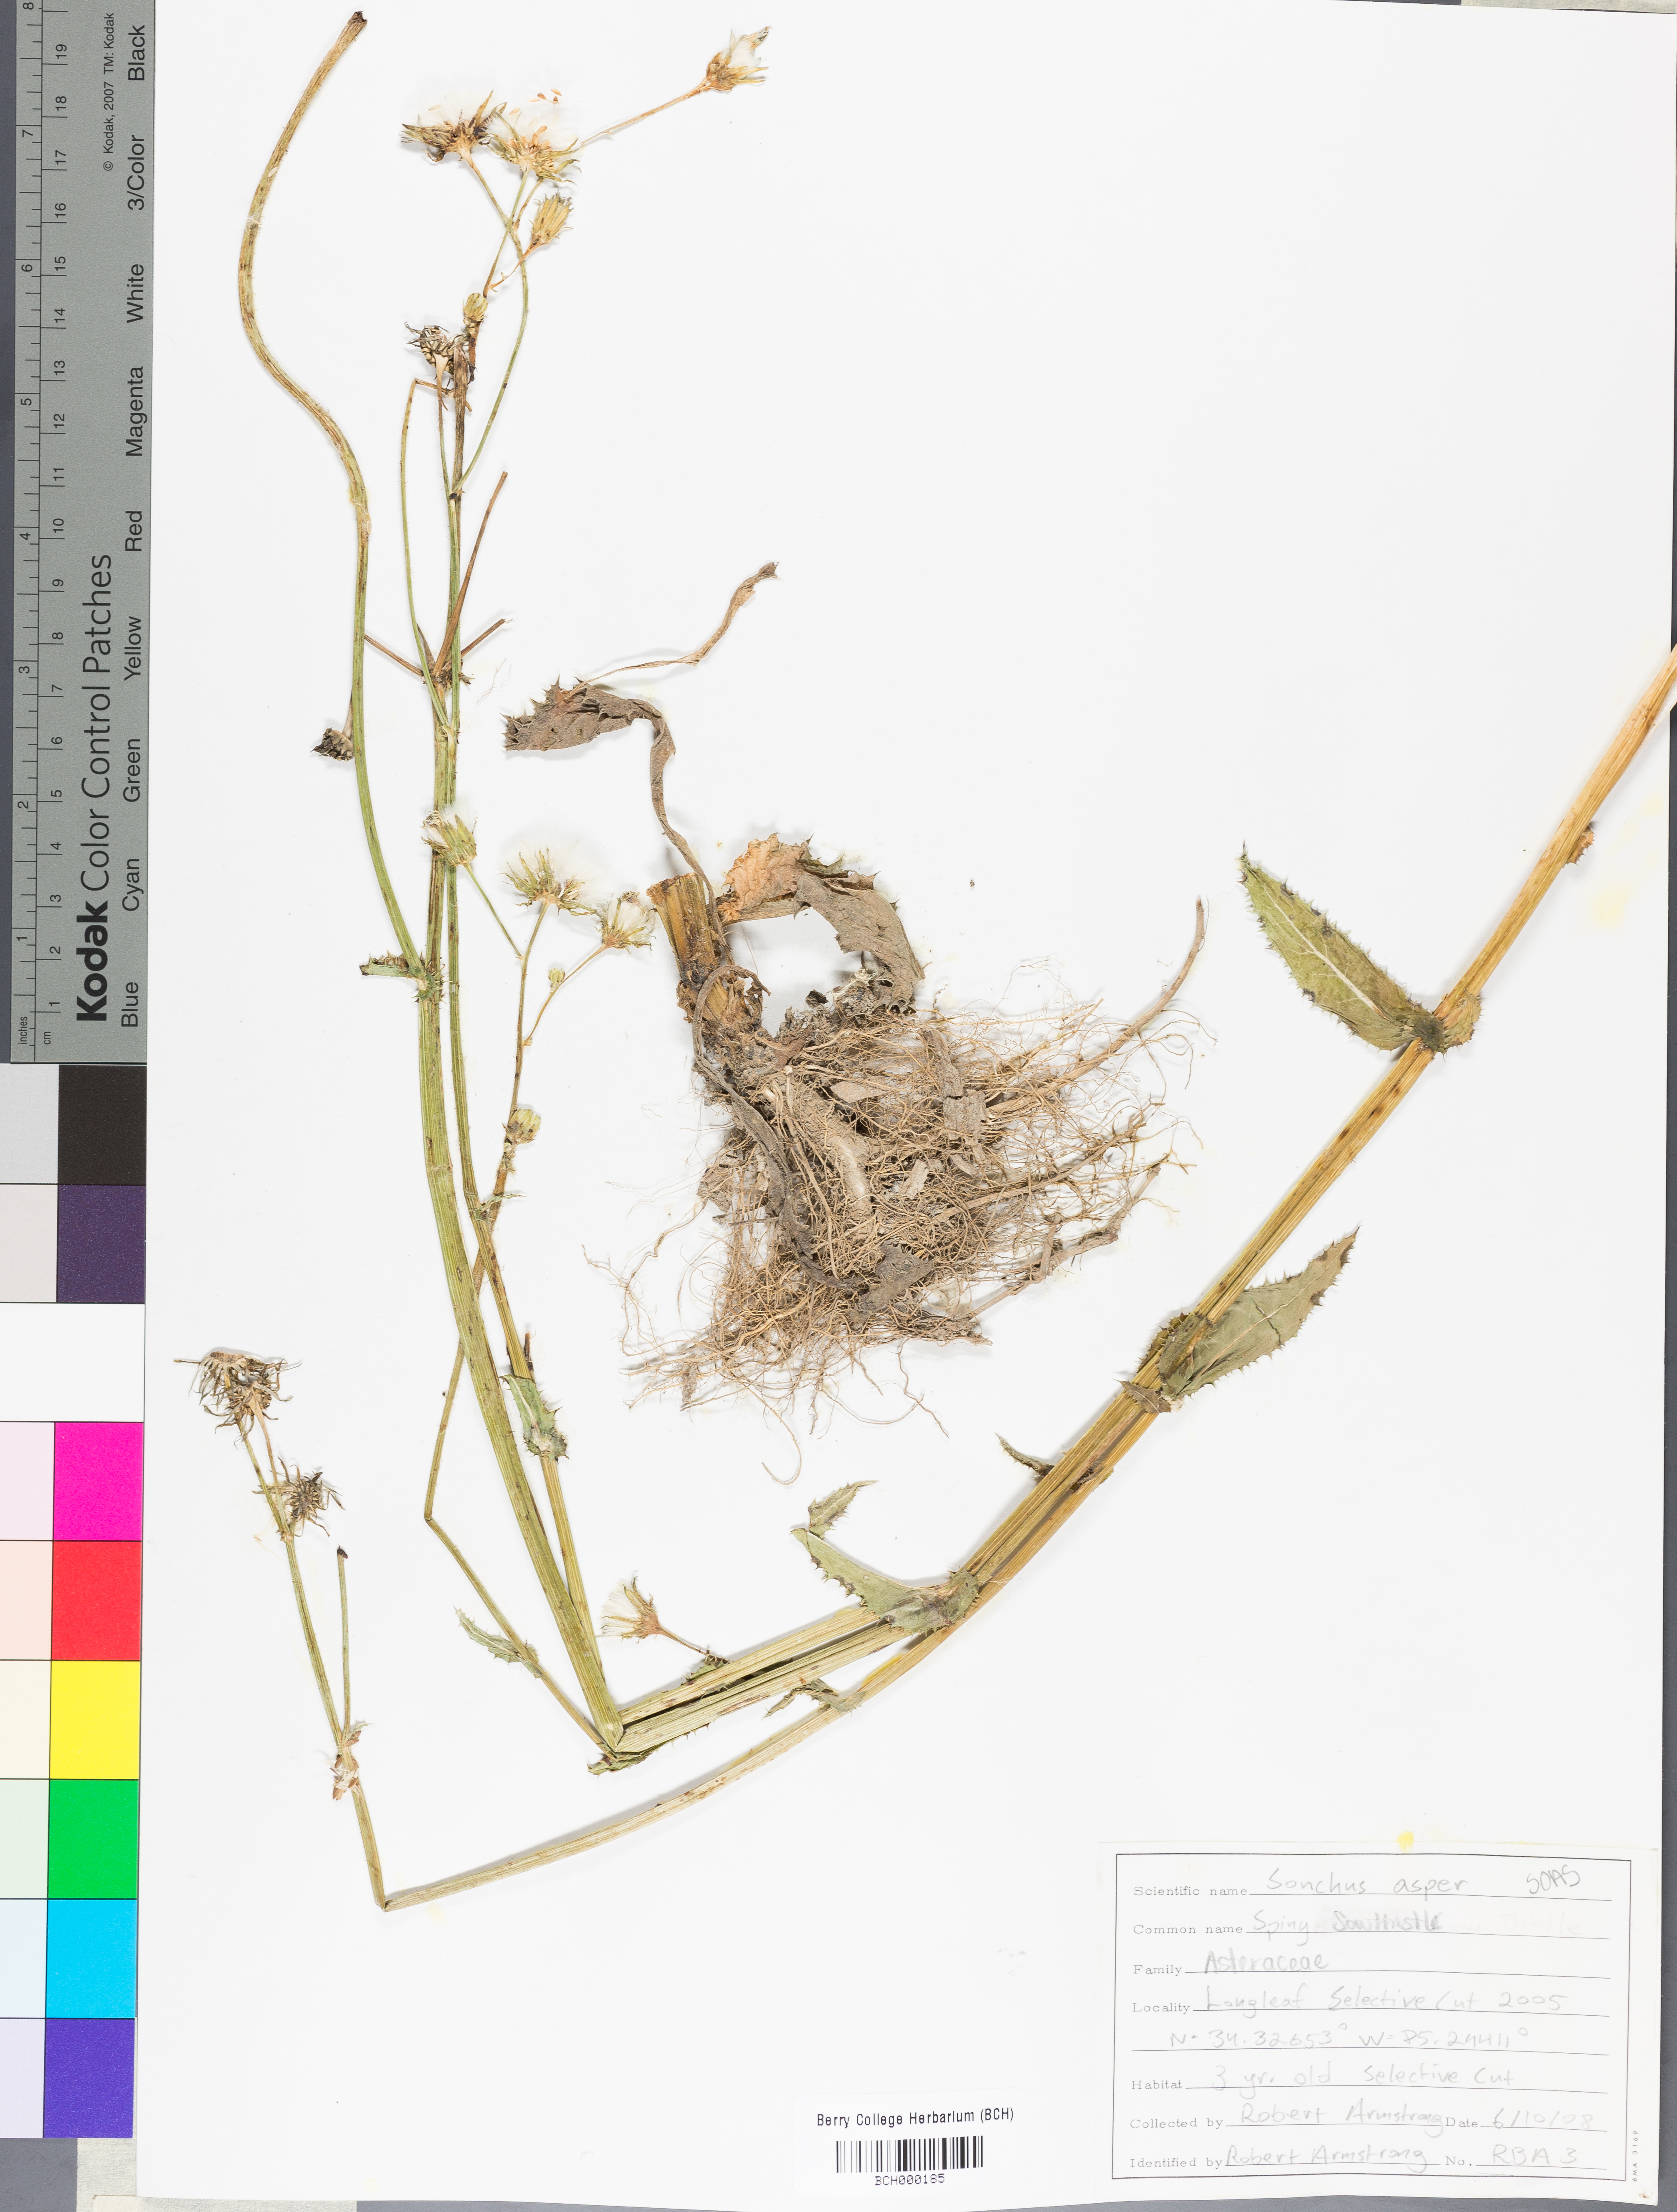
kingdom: Plantae
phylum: Tracheophyta
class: Magnoliopsida
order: Asterales
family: Asteraceae
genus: Sonchus
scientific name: Sonchus asper
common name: Prickly sow-thistle
